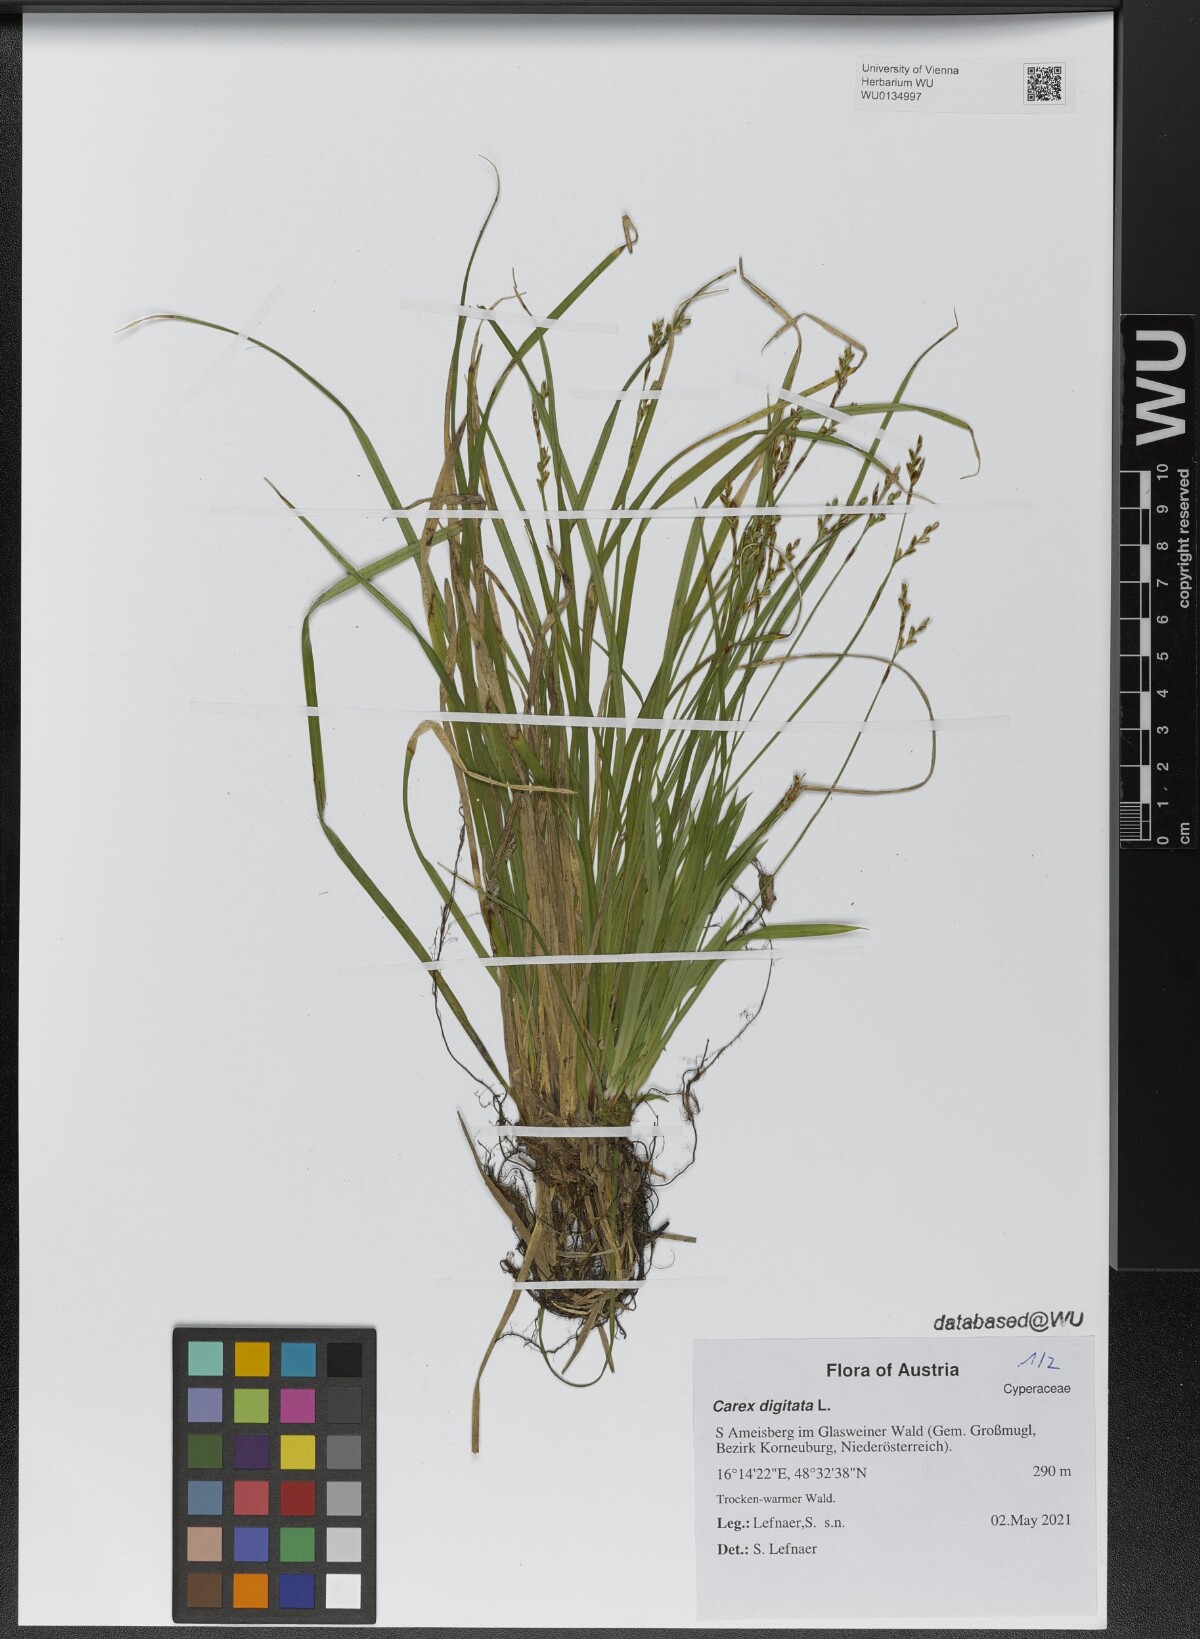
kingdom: Plantae
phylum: Tracheophyta
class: Liliopsida
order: Poales
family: Cyperaceae
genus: Carex
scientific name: Carex digitata
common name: Fingered sedge
